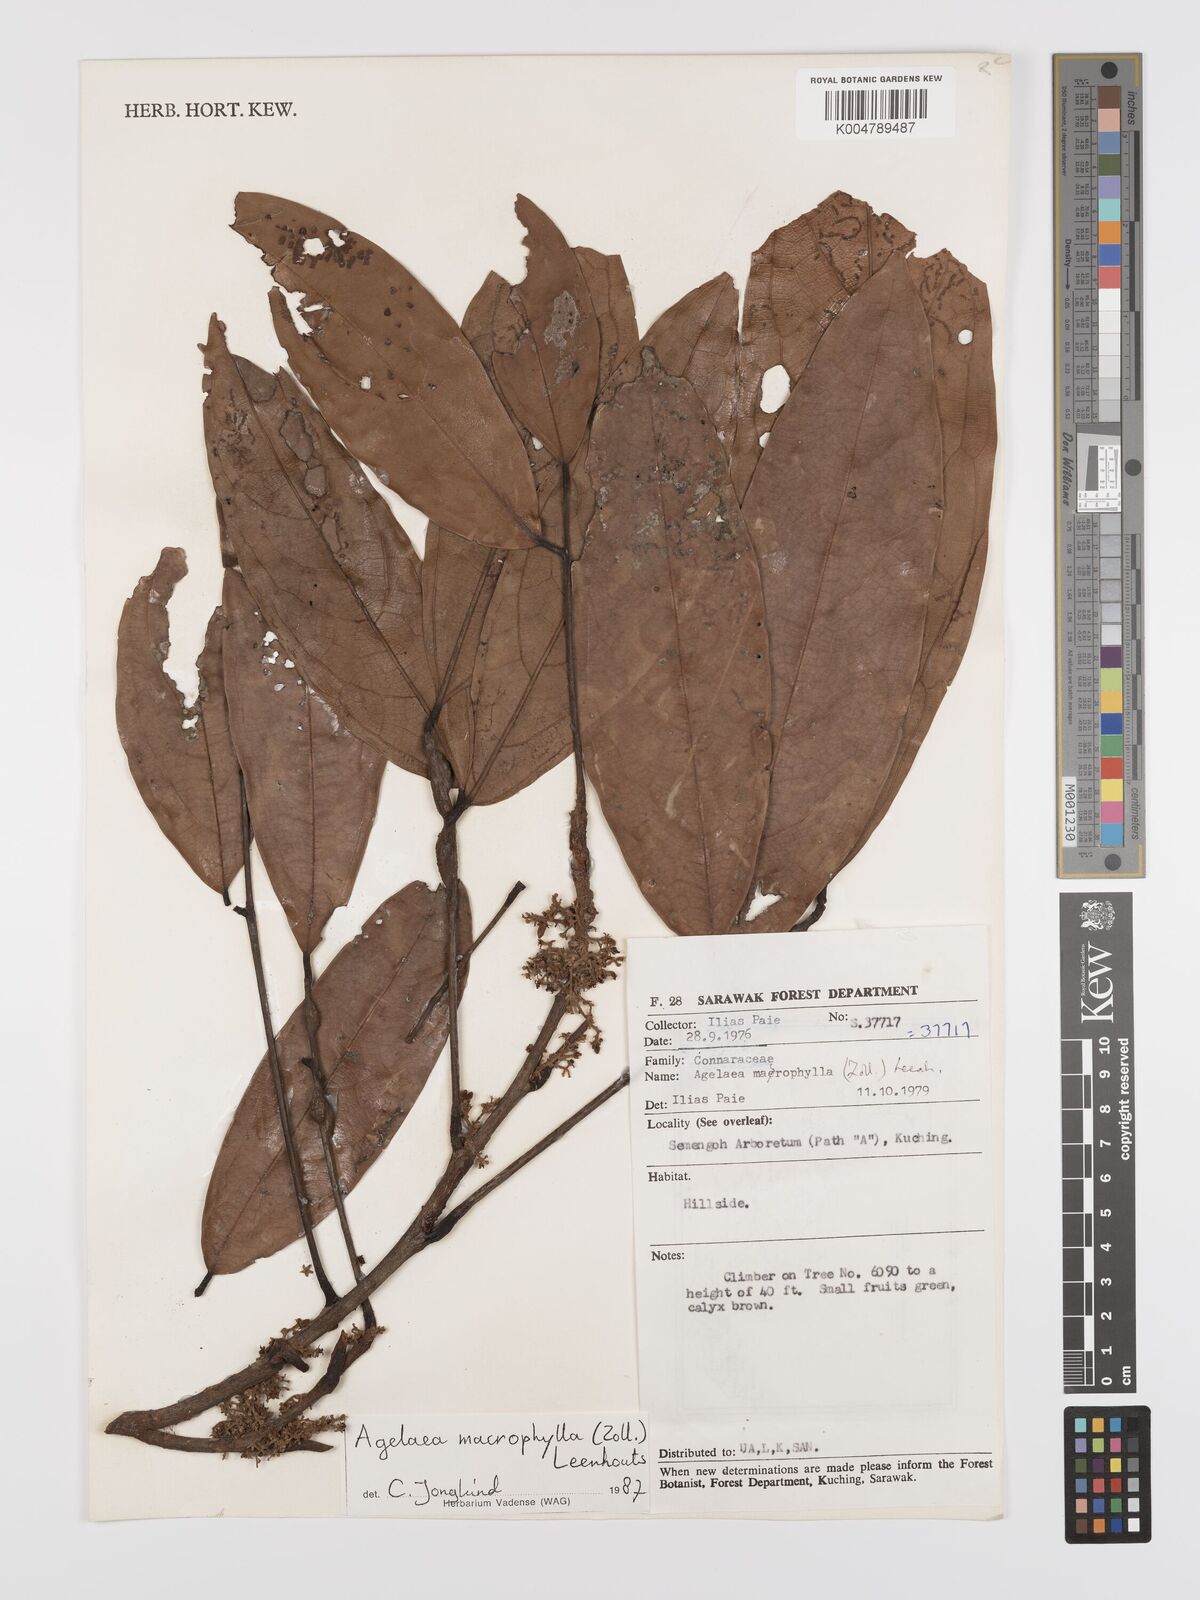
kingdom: Plantae
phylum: Tracheophyta
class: Magnoliopsida
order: Oxalidales
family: Connaraceae
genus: Agelaea
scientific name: Agelaea macrophylla
